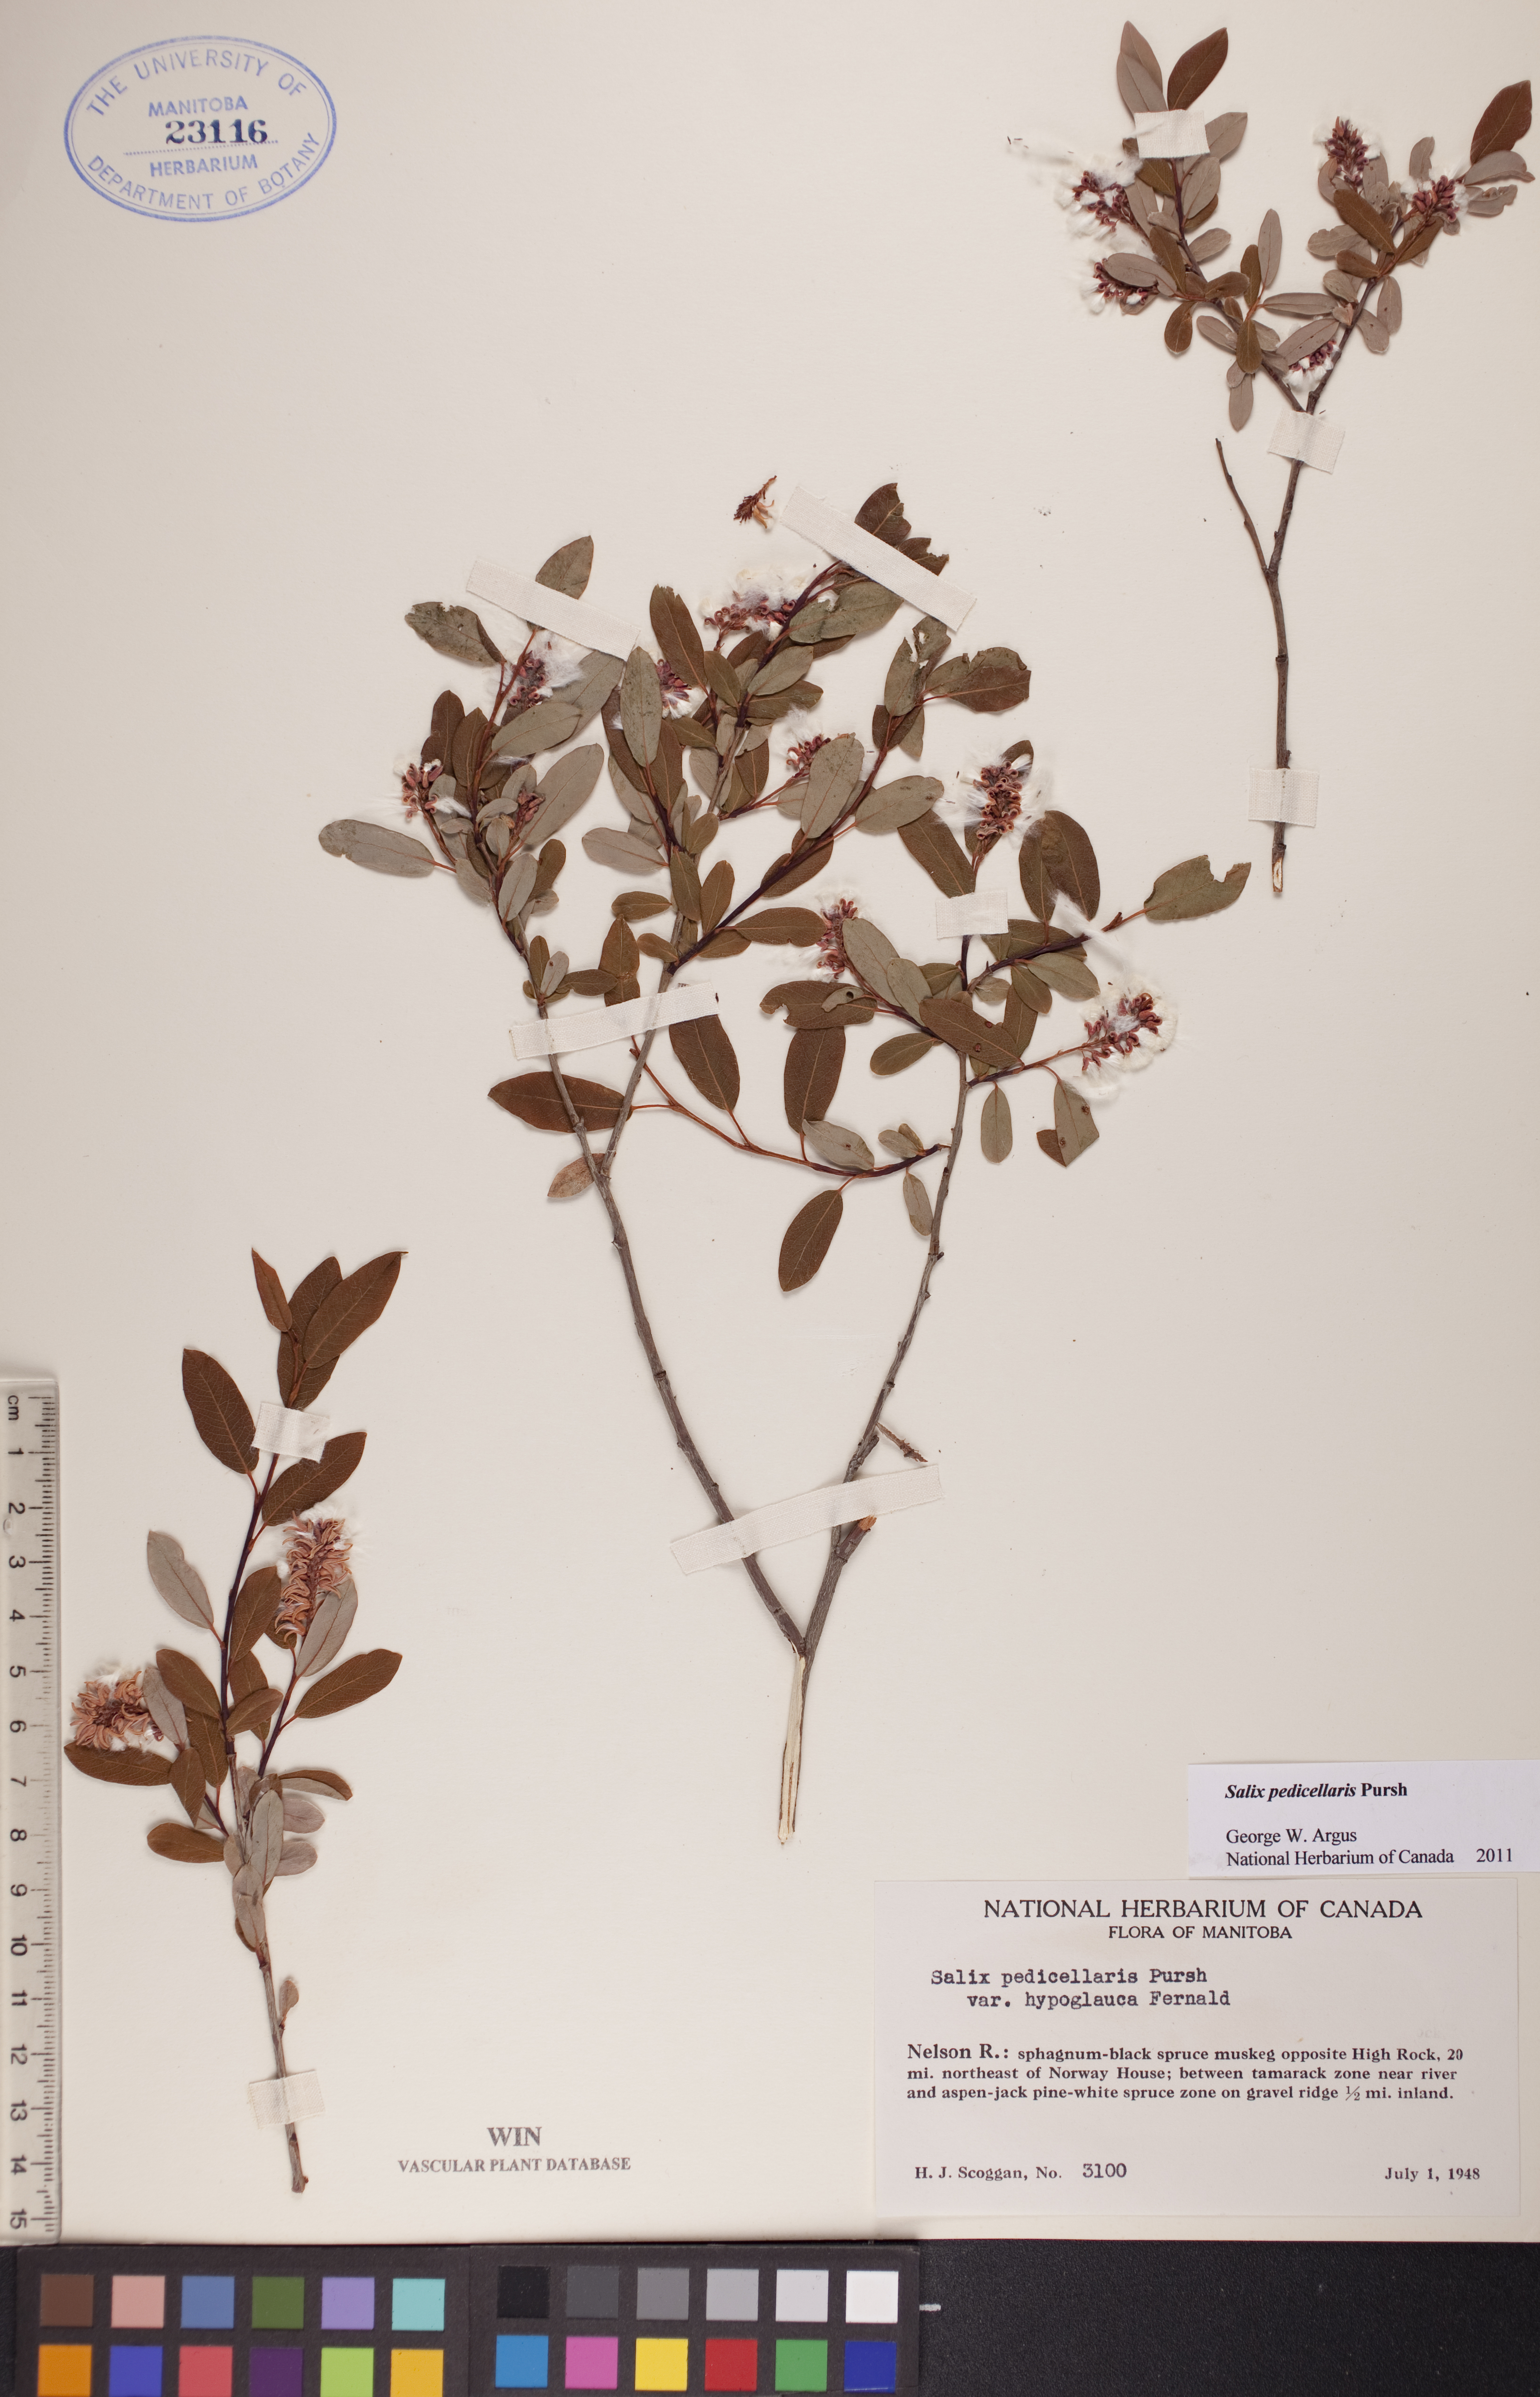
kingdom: Plantae
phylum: Tracheophyta
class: Magnoliopsida
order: Malpighiales
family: Salicaceae
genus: Salix
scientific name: Salix pedicellaris
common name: Bog willow
